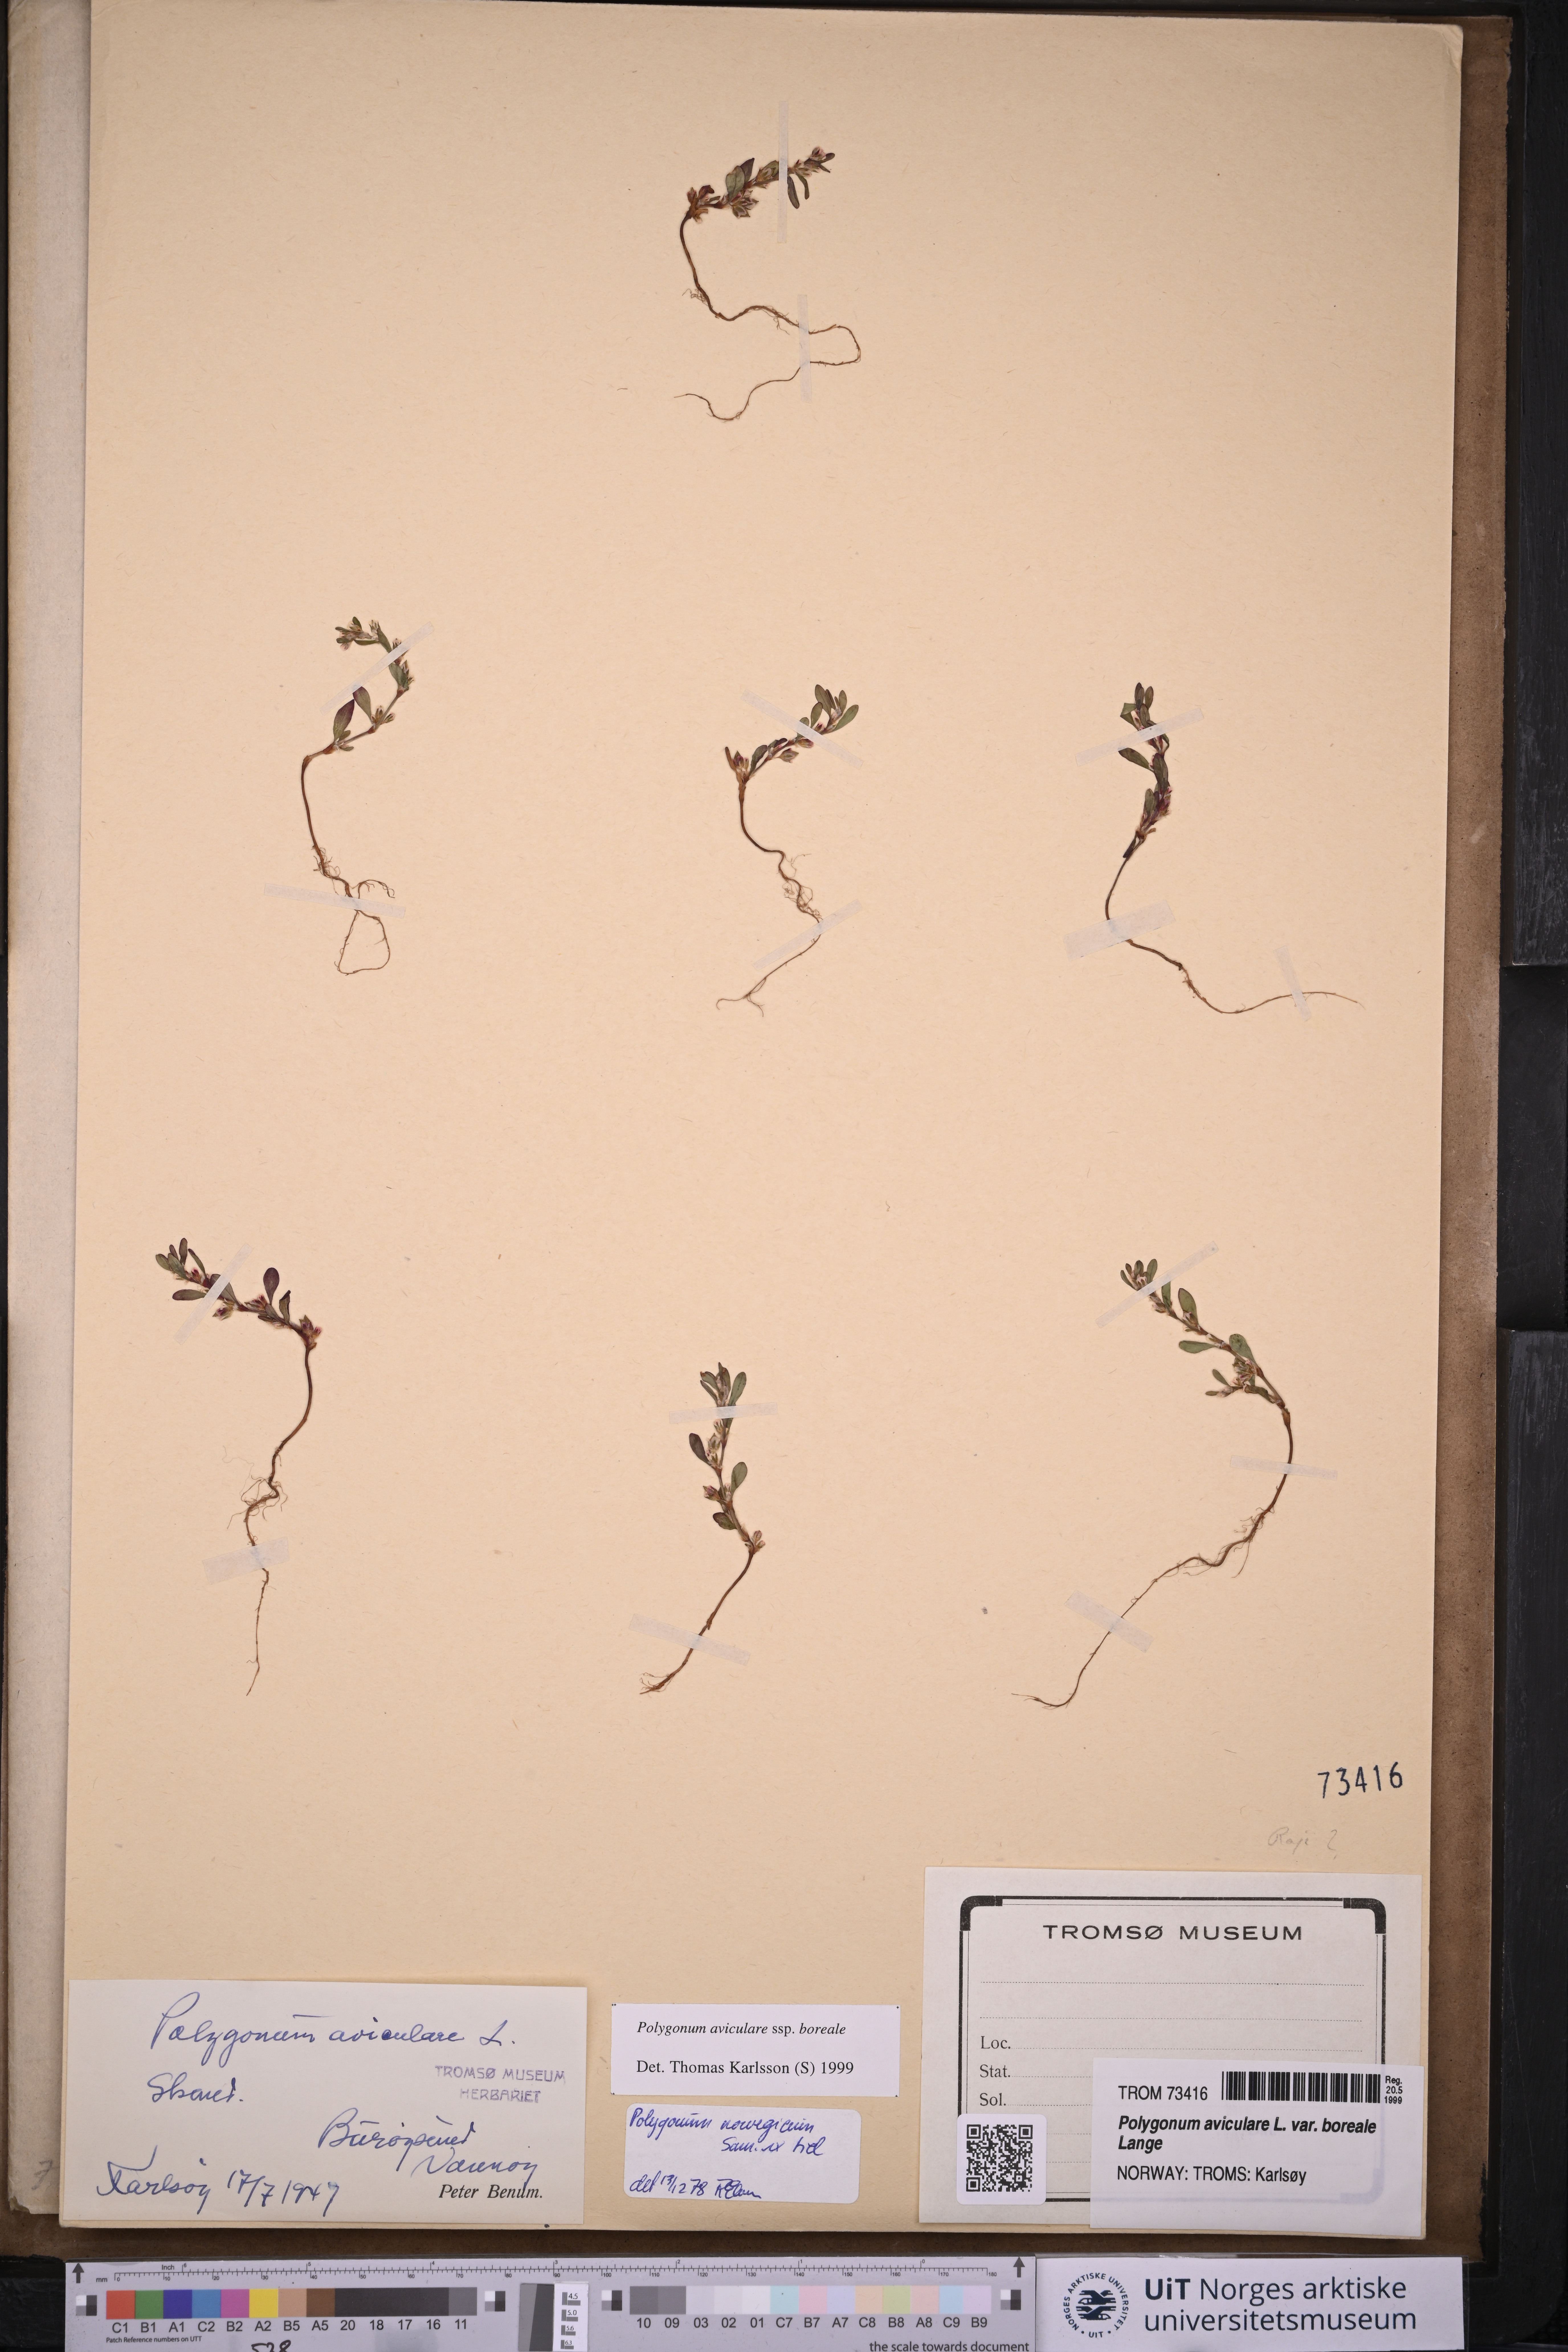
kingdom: Plantae
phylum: Tracheophyta
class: Magnoliopsida
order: Caryophyllales
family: Polygonaceae
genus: Polygonum
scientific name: Polygonum boreale
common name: Northern knotgrass
